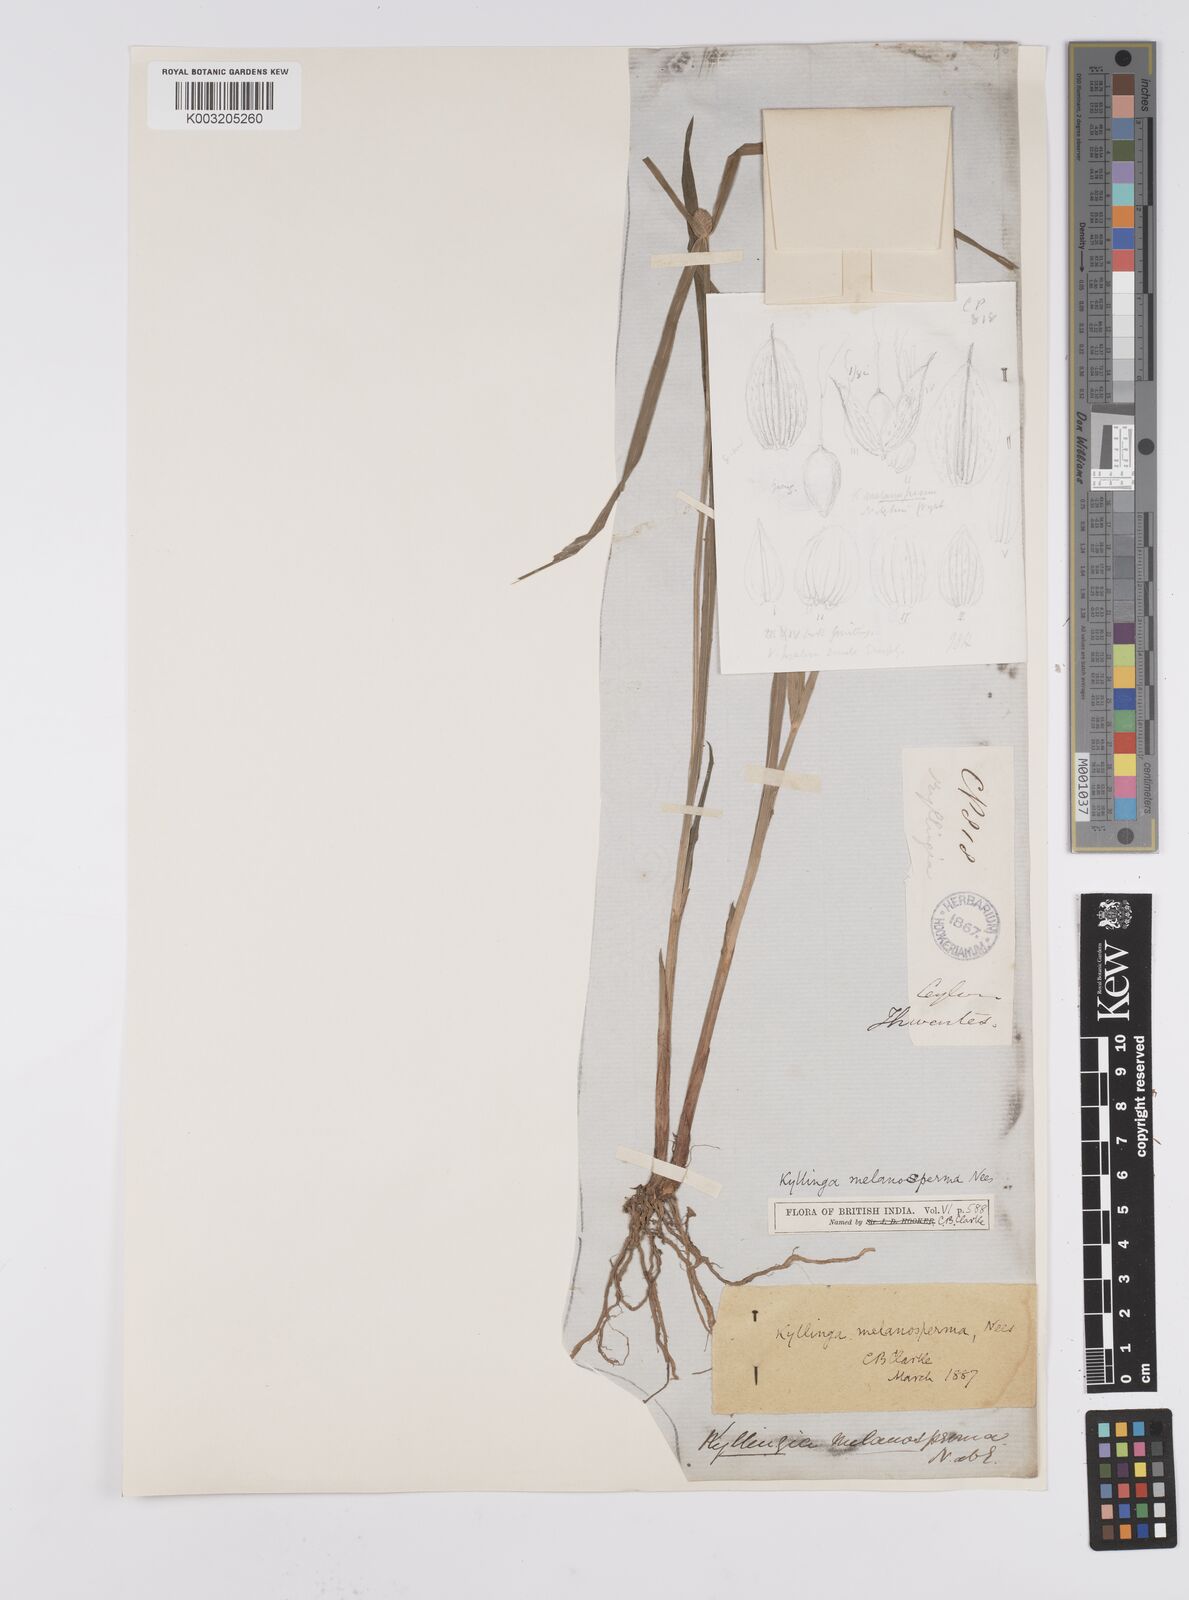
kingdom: Plantae
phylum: Tracheophyta
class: Liliopsida
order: Poales
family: Cyperaceae
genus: Cyperus
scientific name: Cyperus melanospermus
